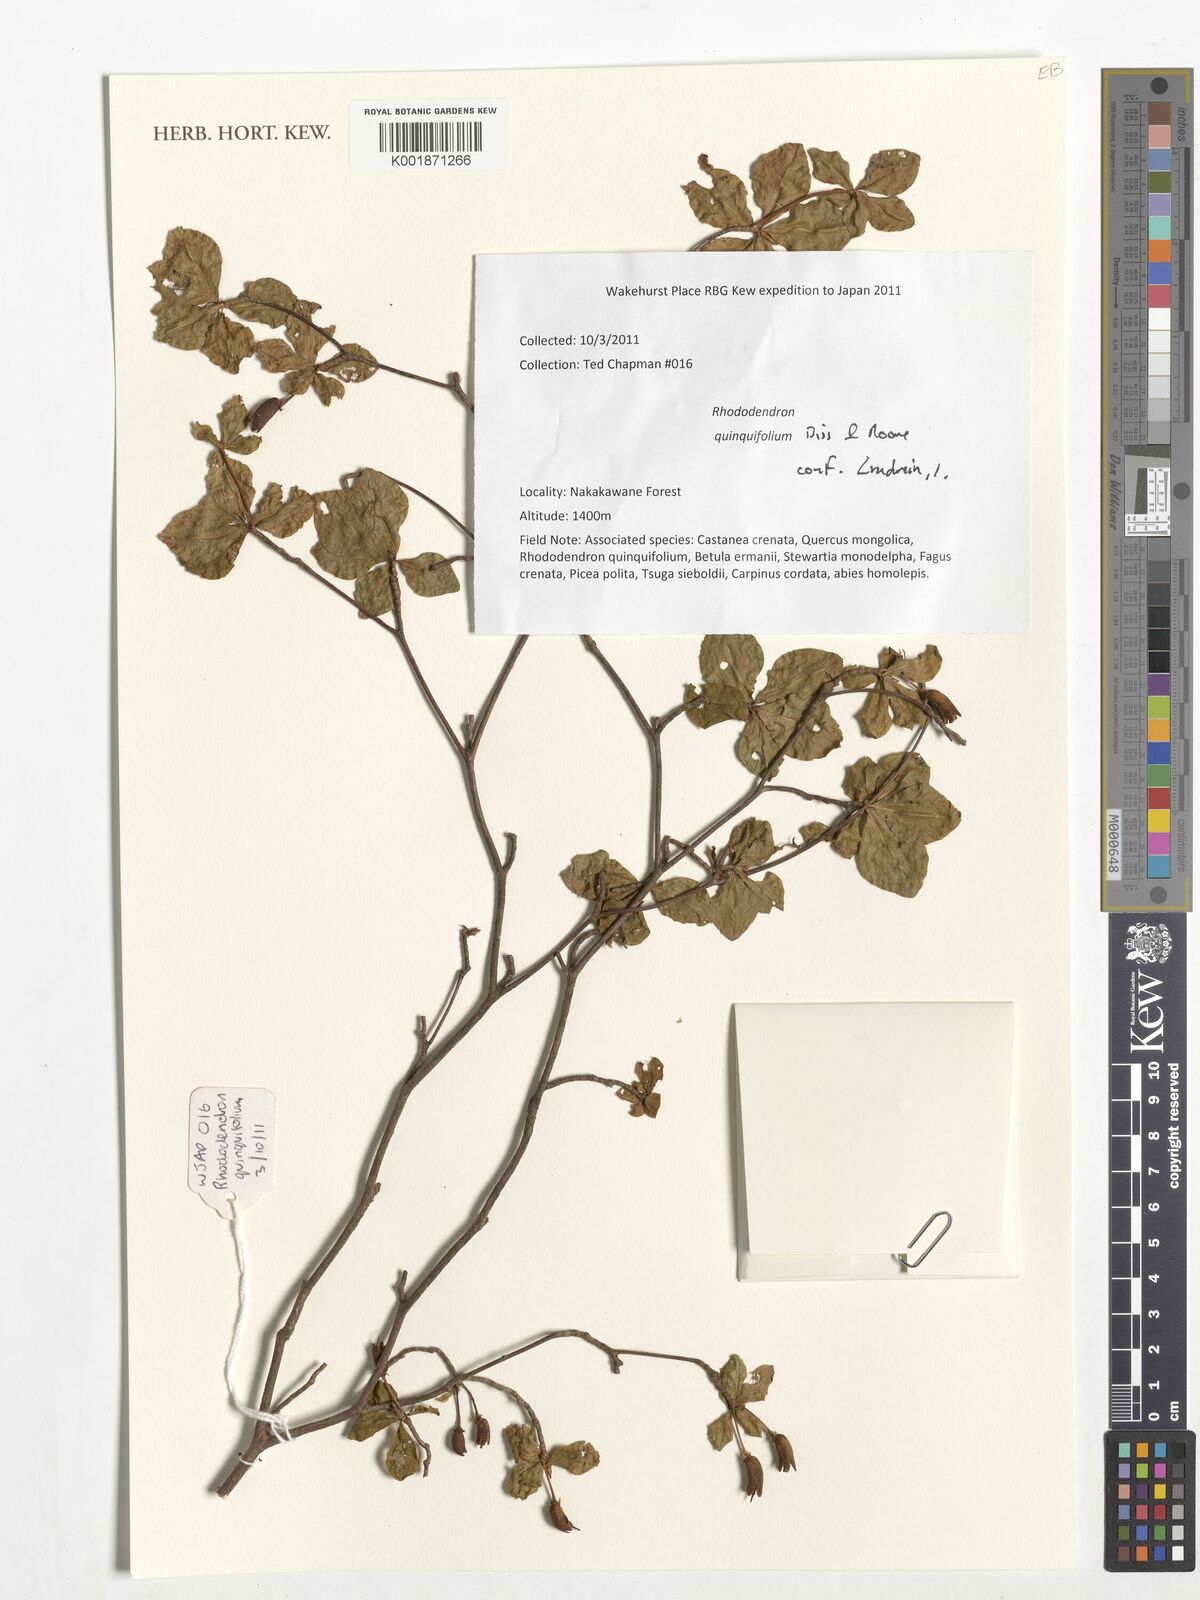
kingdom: Plantae
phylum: Tracheophyta
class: Magnoliopsida
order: Ericales
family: Ericaceae
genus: Rhododendron
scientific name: Rhododendron quinquefolium
